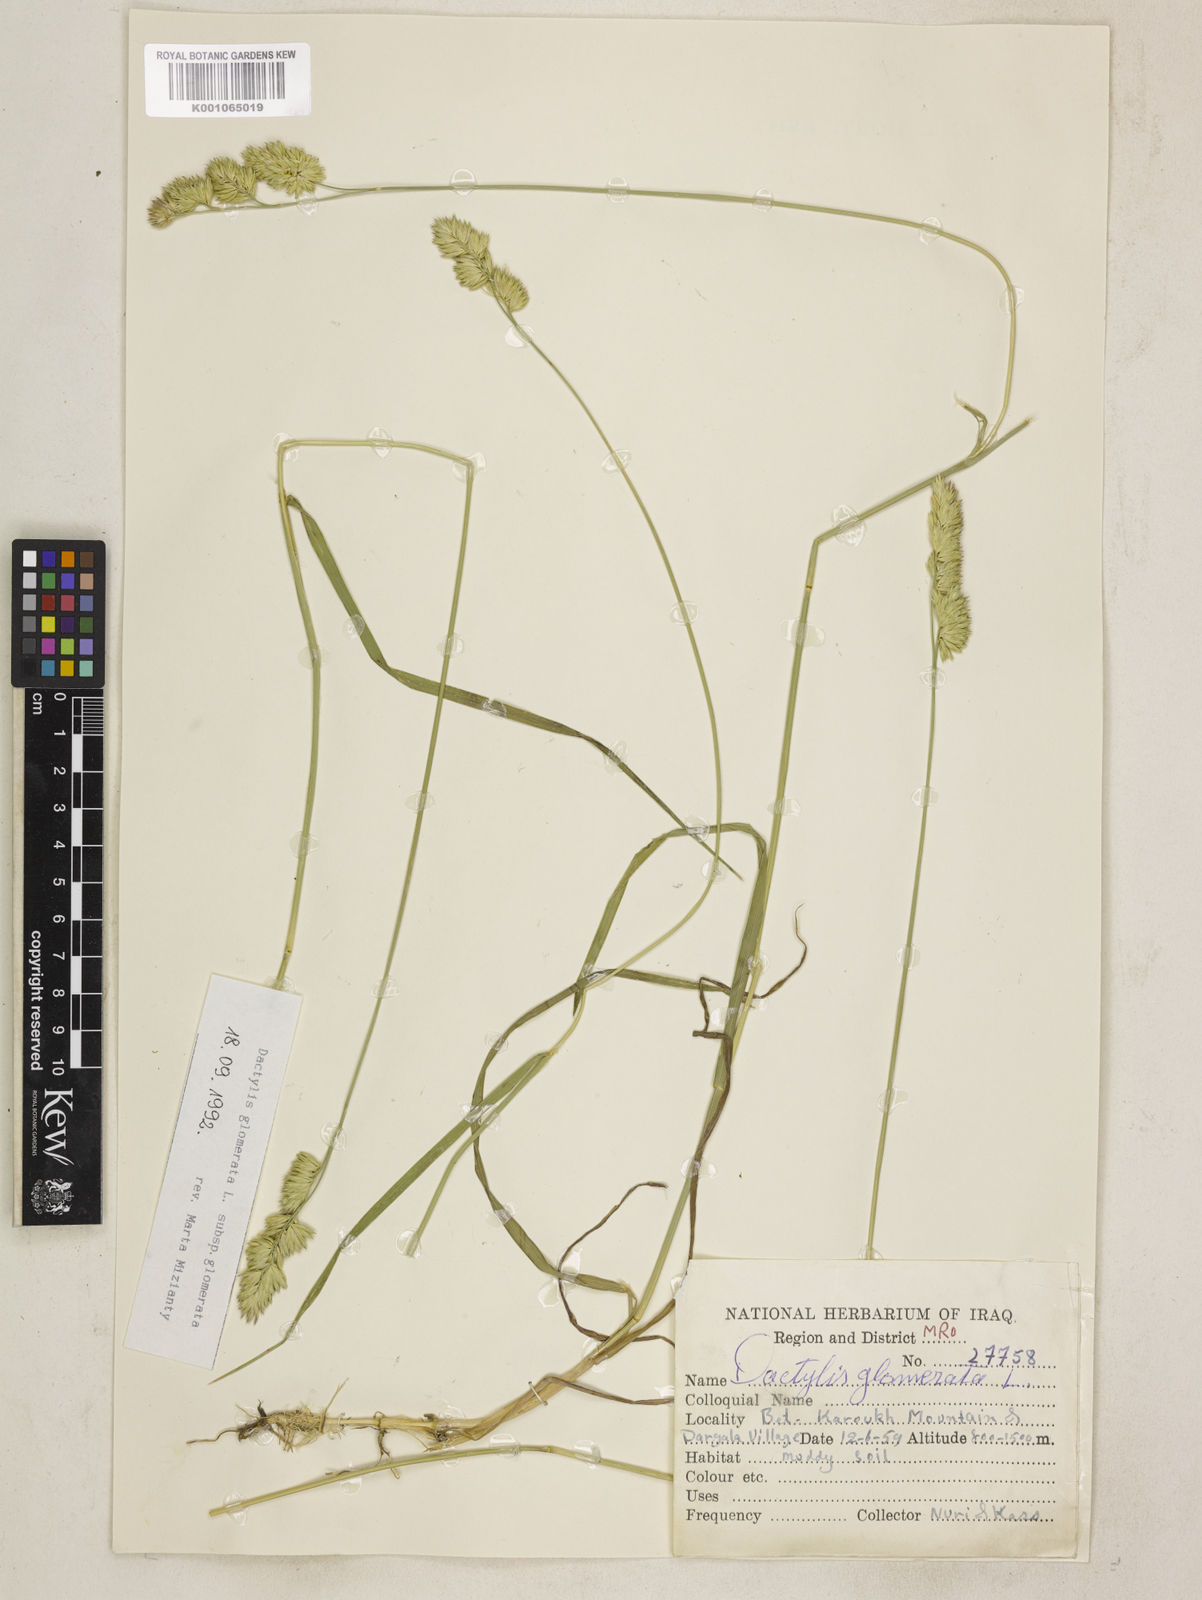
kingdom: Plantae
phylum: Tracheophyta
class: Liliopsida
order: Poales
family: Poaceae
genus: Dactylis
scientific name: Dactylis glomerata
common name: Orchardgrass
